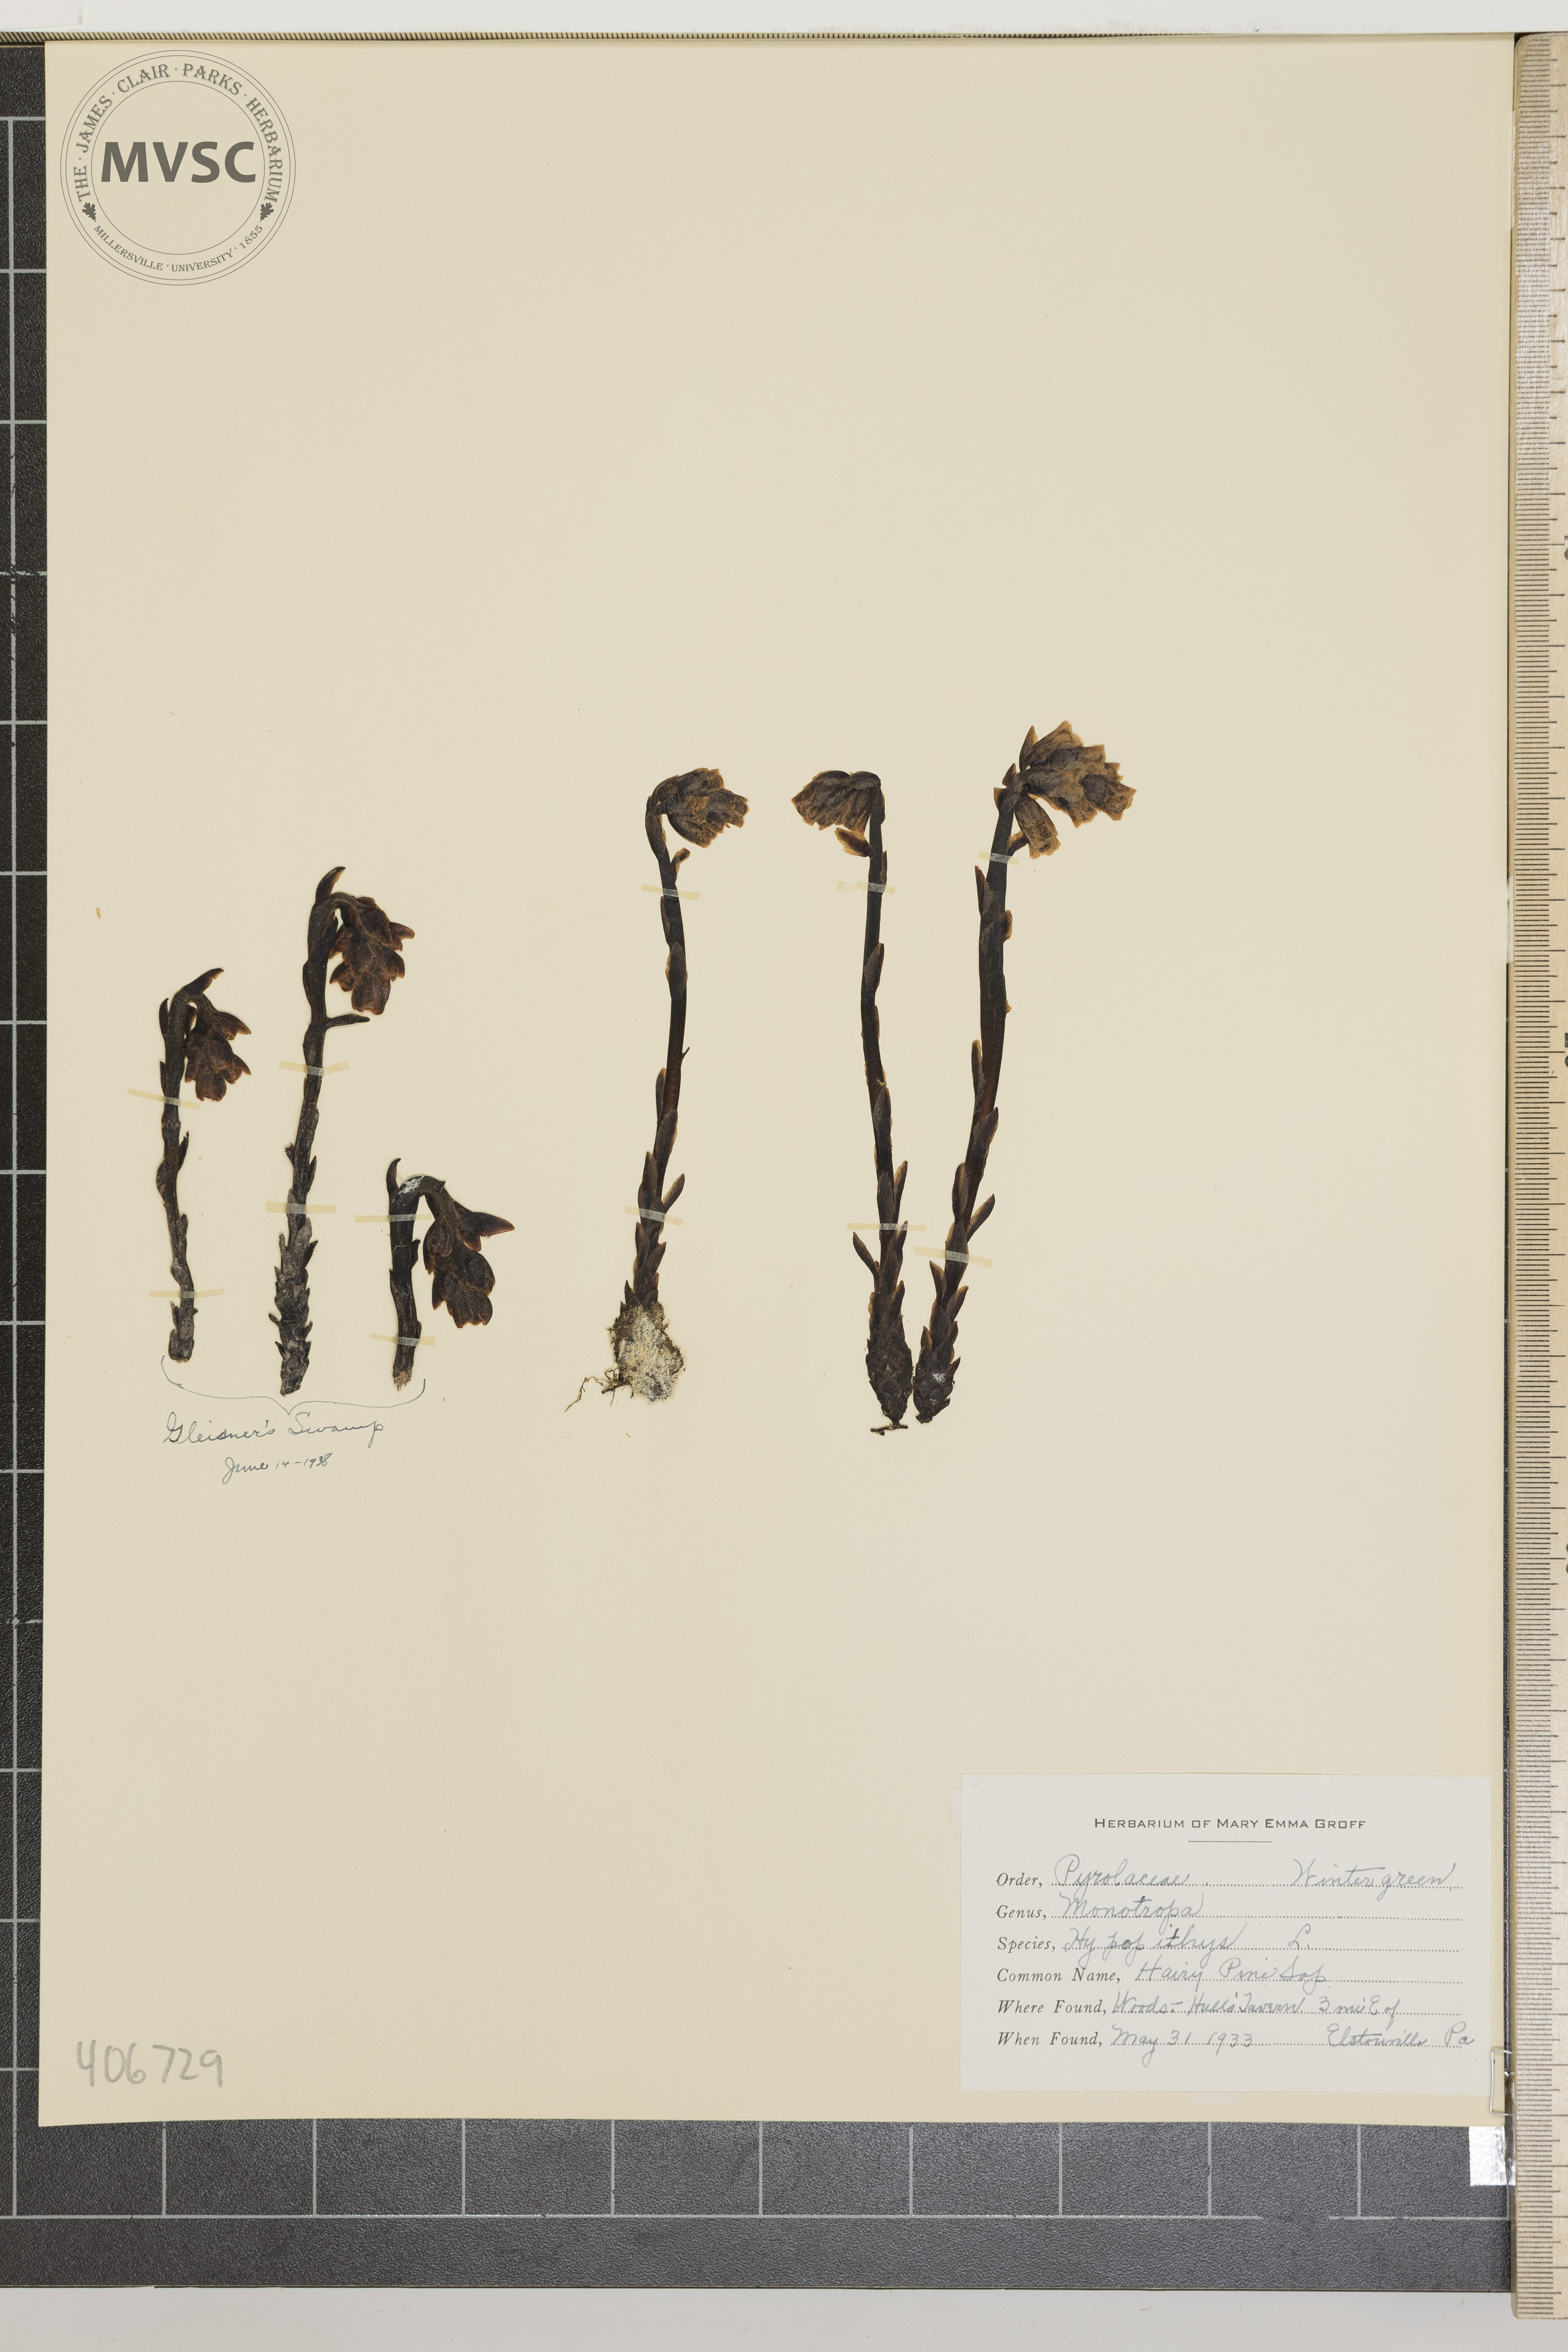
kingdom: Plantae
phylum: Tracheophyta
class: Magnoliopsida
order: Ericales
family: Ericaceae
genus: Hypopitys
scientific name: Hypopitys monotropa
